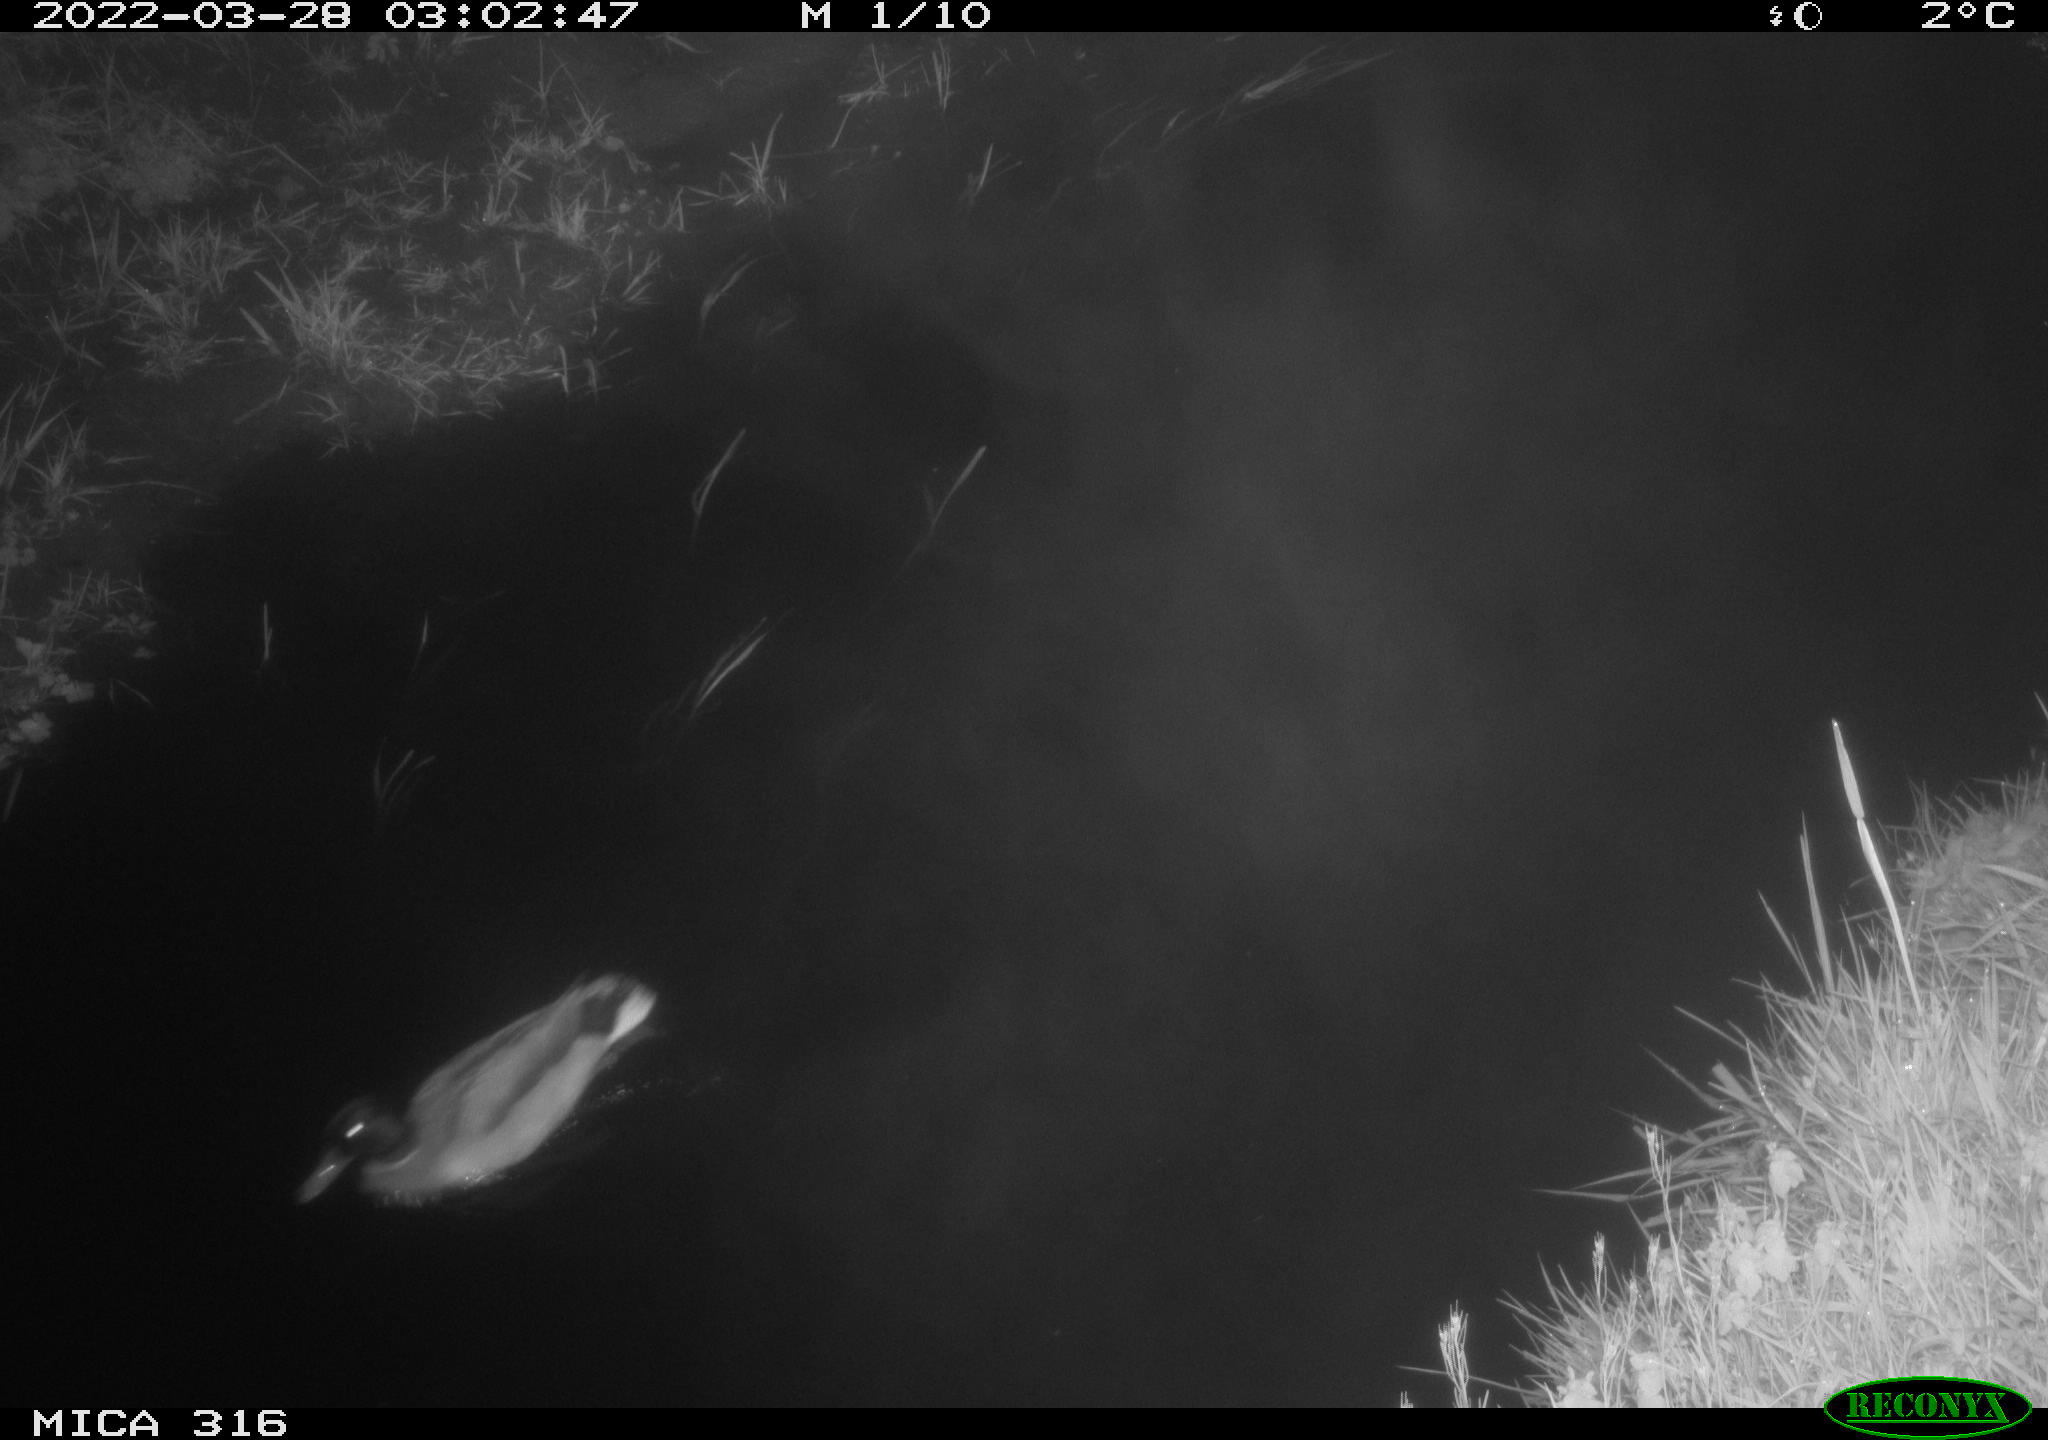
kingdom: Animalia
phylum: Chordata
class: Aves
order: Anseriformes
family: Anatidae
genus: Anas
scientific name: Anas platyrhynchos
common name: Mallard
